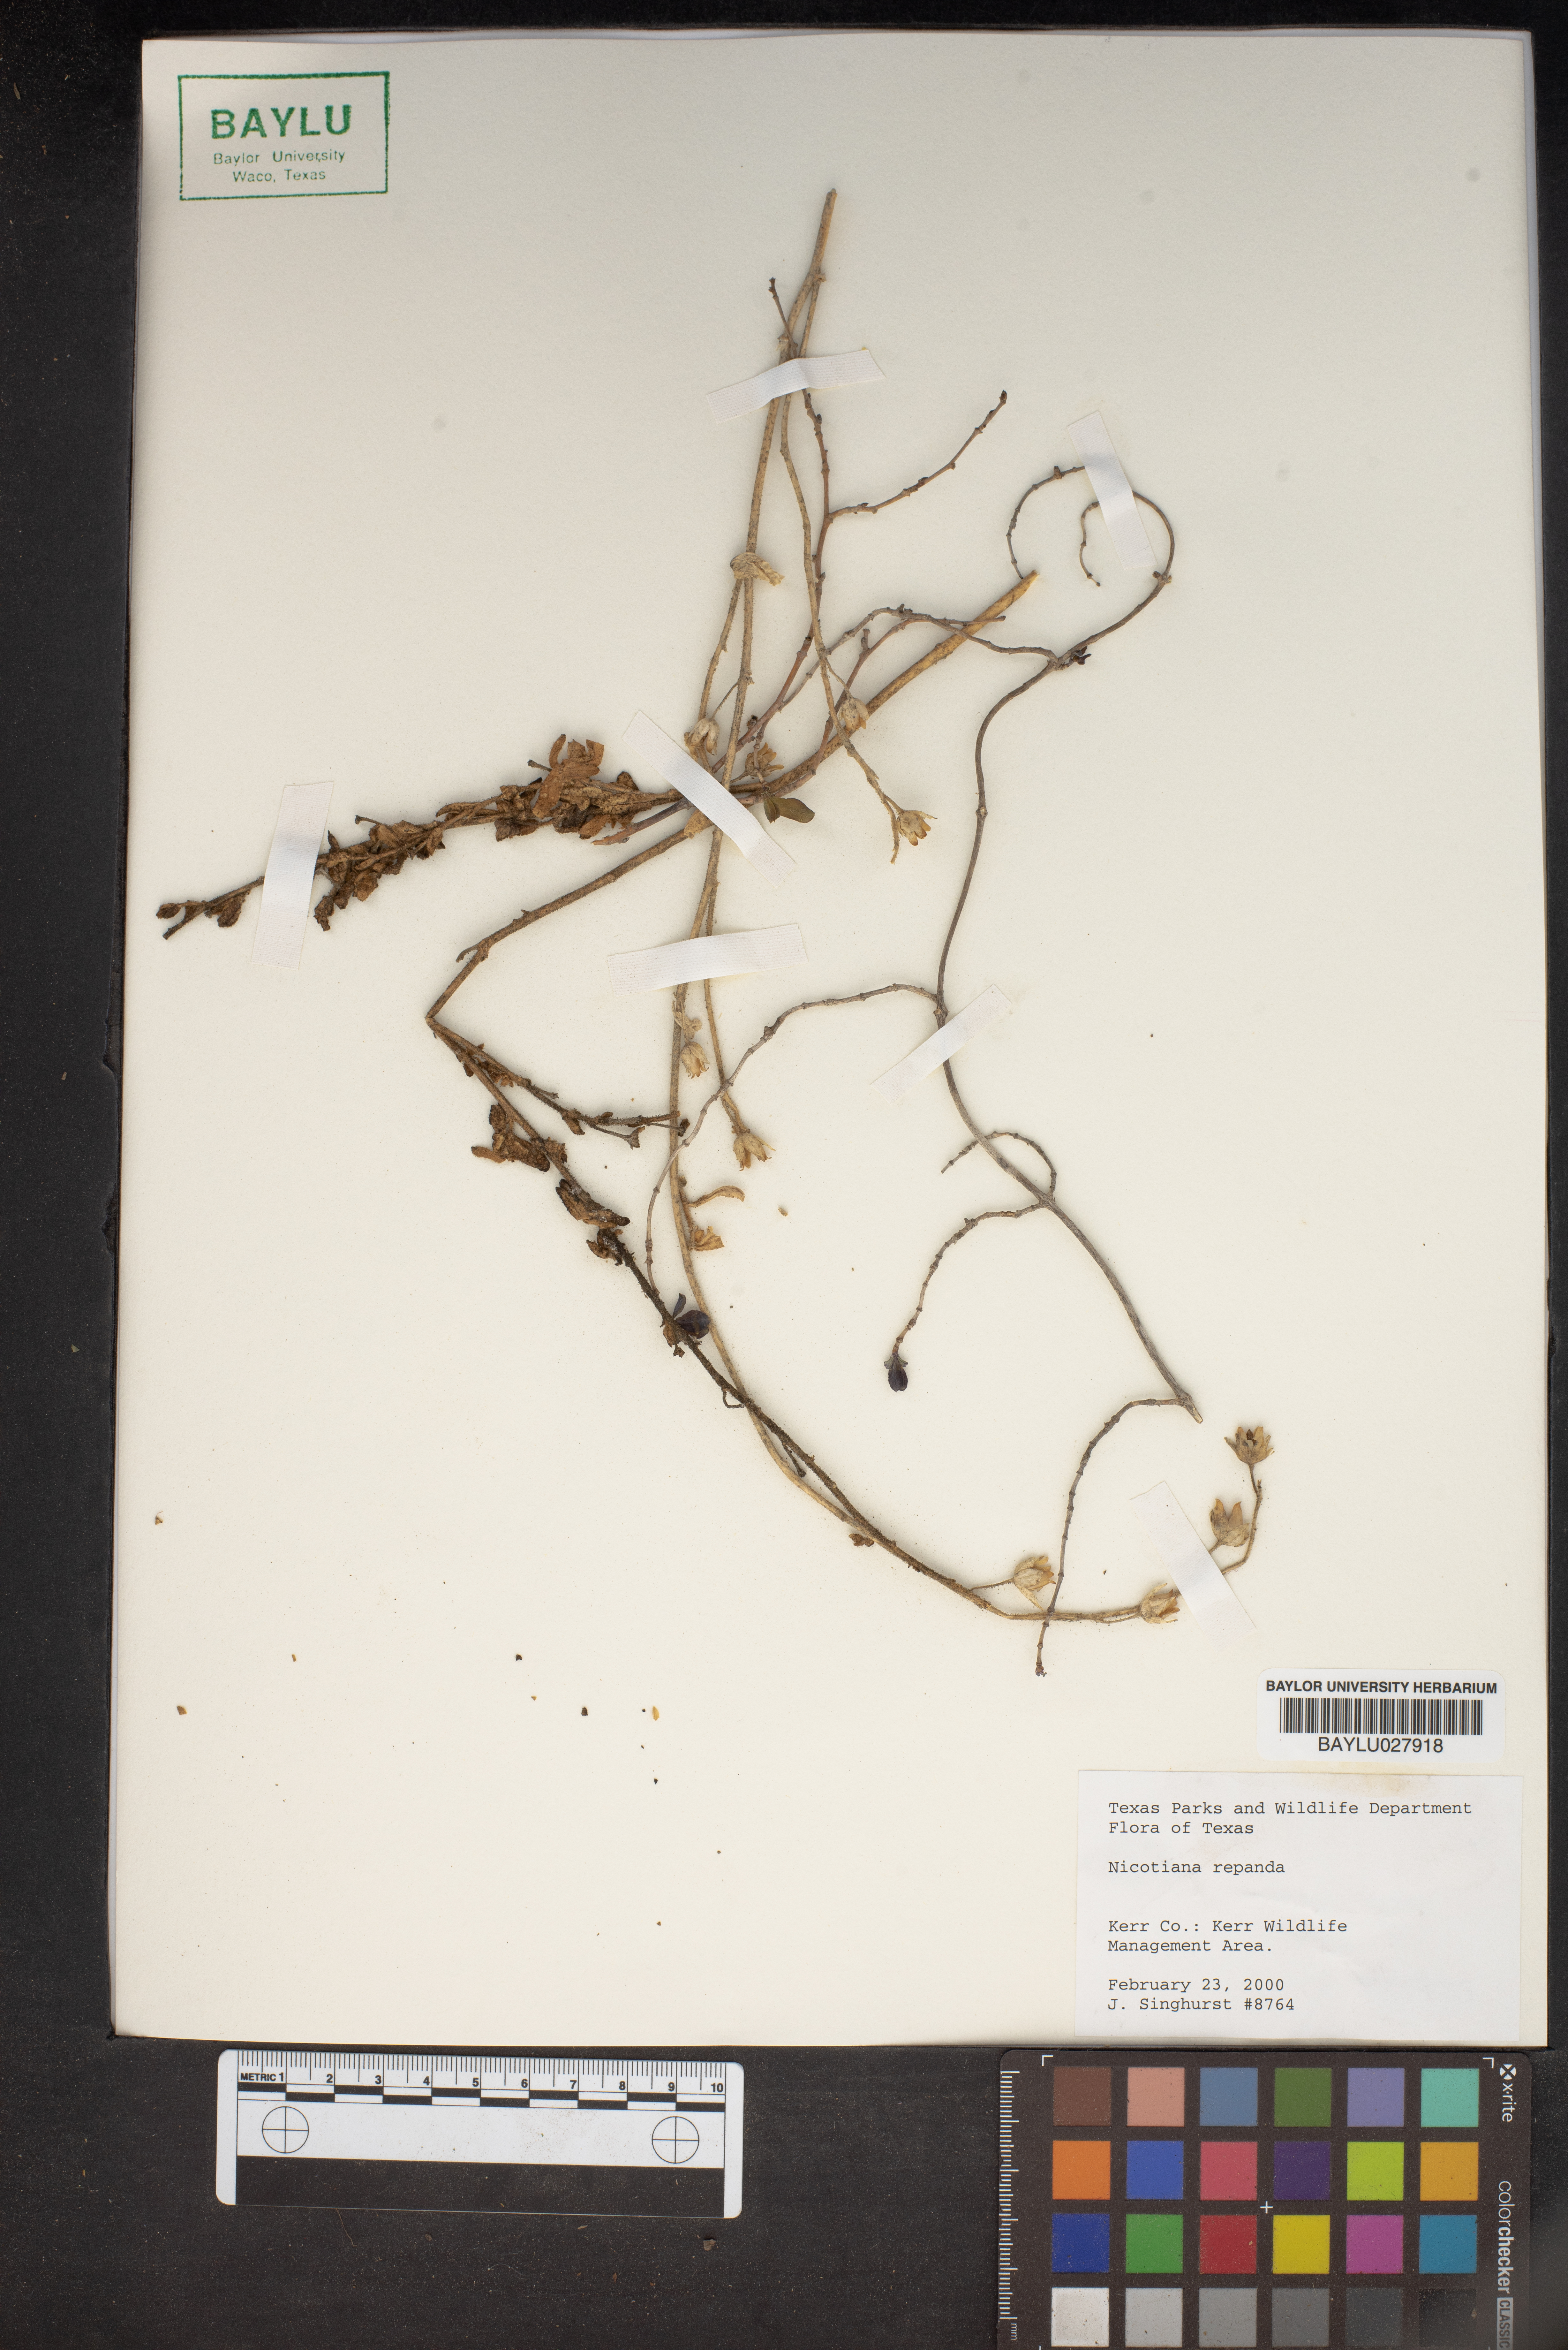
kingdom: Plantae
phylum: Tracheophyta
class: Magnoliopsida
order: Solanales
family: Solanaceae
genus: Nicotiana
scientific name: Nicotiana repanda
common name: Fiddle-leaf tobacco
